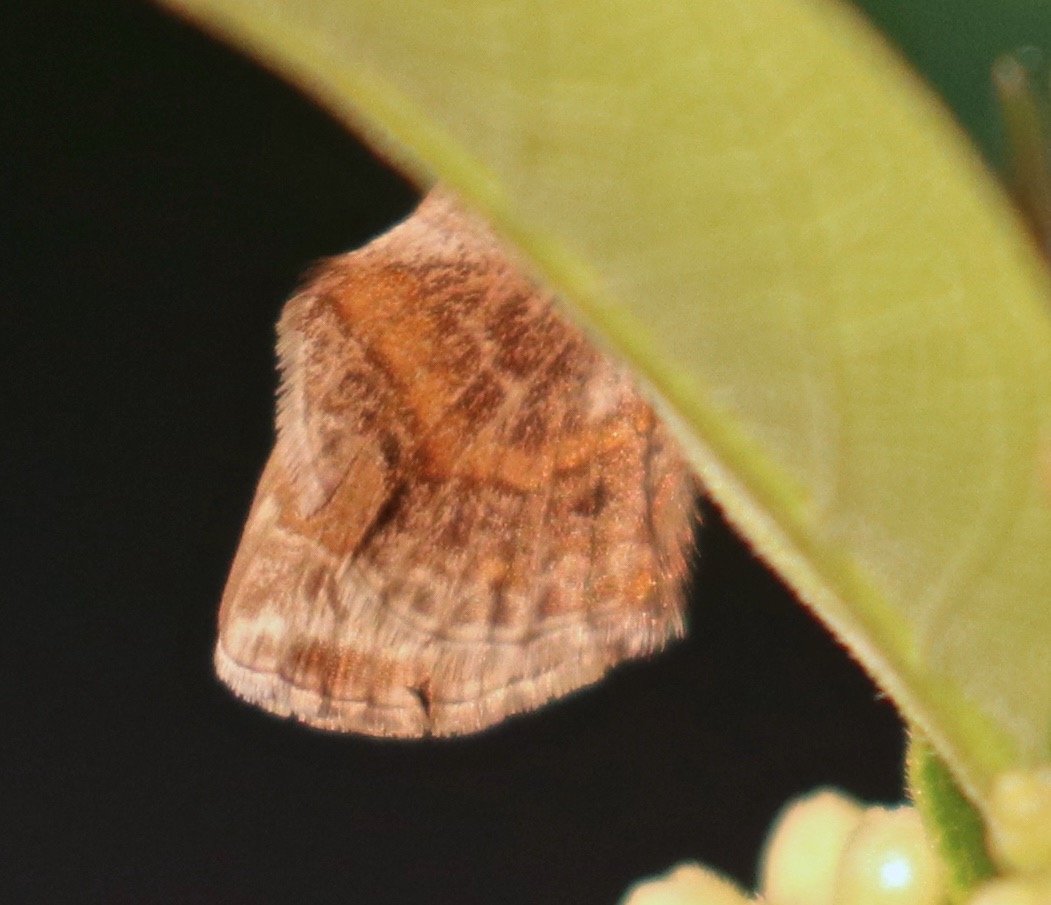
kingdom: Animalia
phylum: Arthropoda
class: Insecta
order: Lepidoptera
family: Lycaenidae
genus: Strymon
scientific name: Strymon bazochii
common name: Lantana Scrub-Hairstreak
